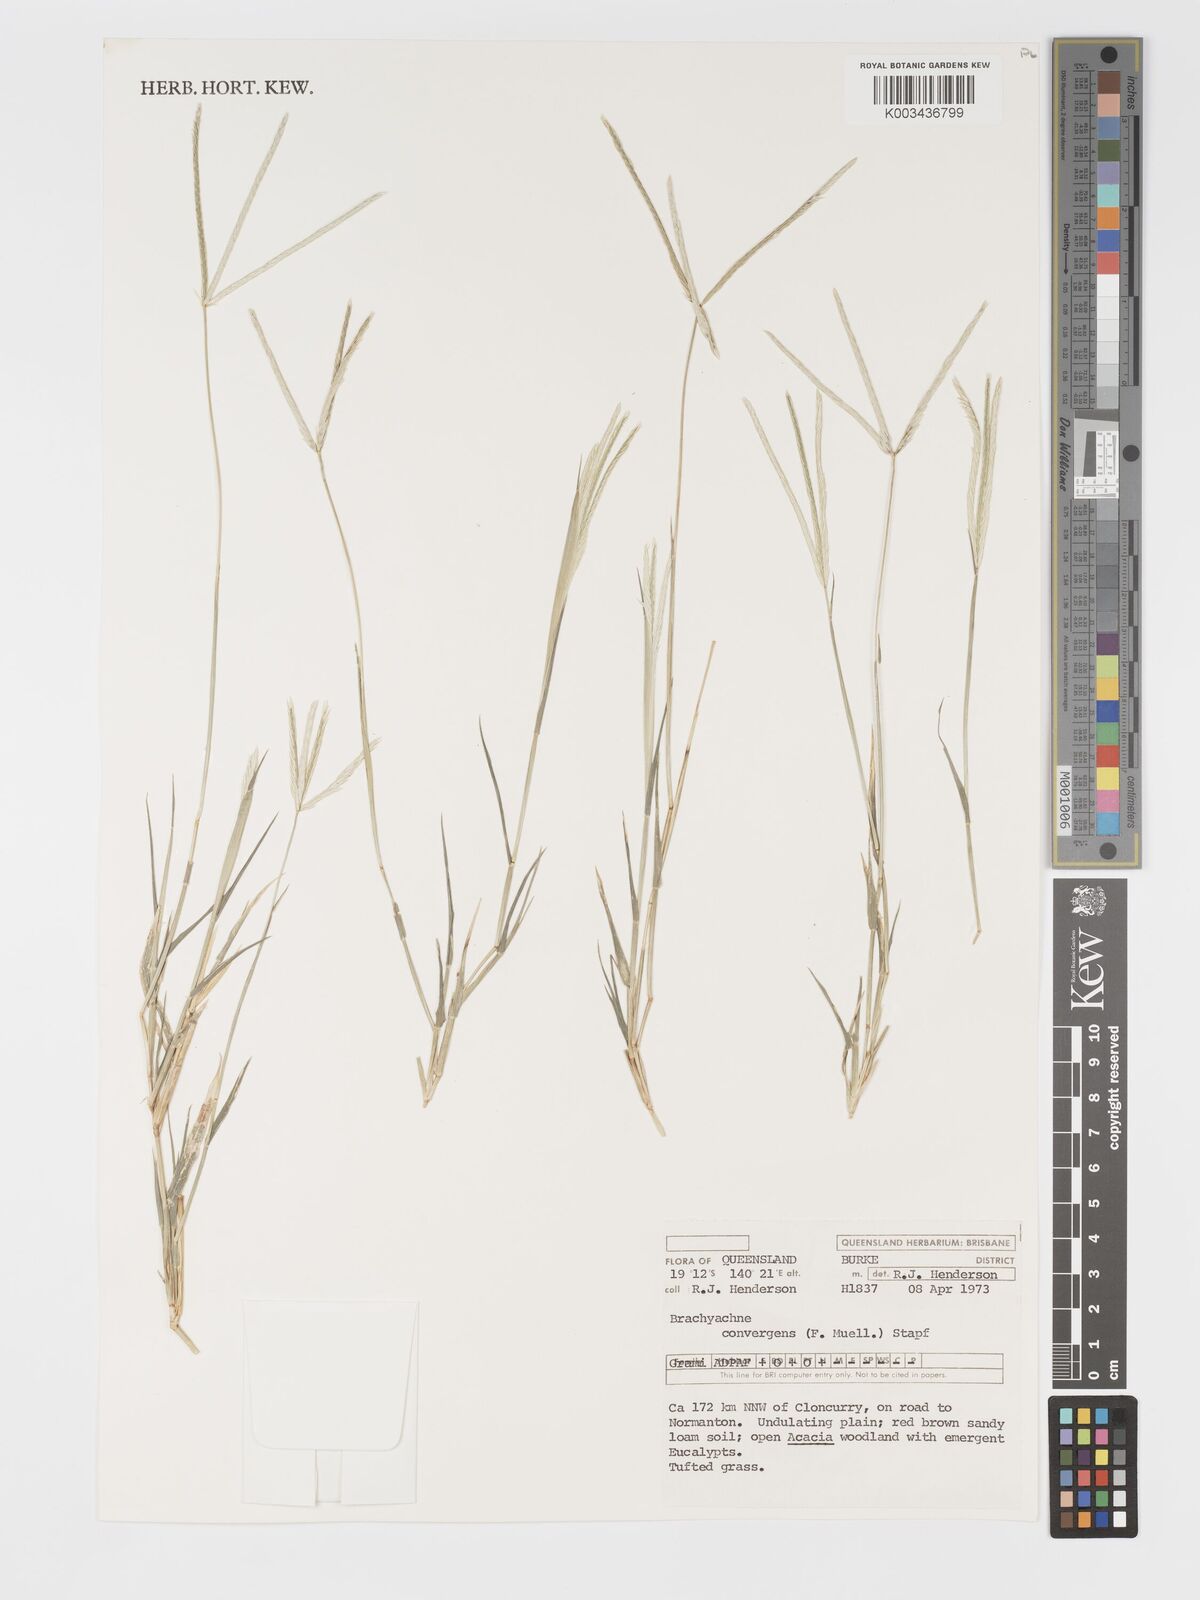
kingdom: Plantae
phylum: Tracheophyta
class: Liliopsida
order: Poales
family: Poaceae
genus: Cynodon
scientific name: Cynodon convergens
